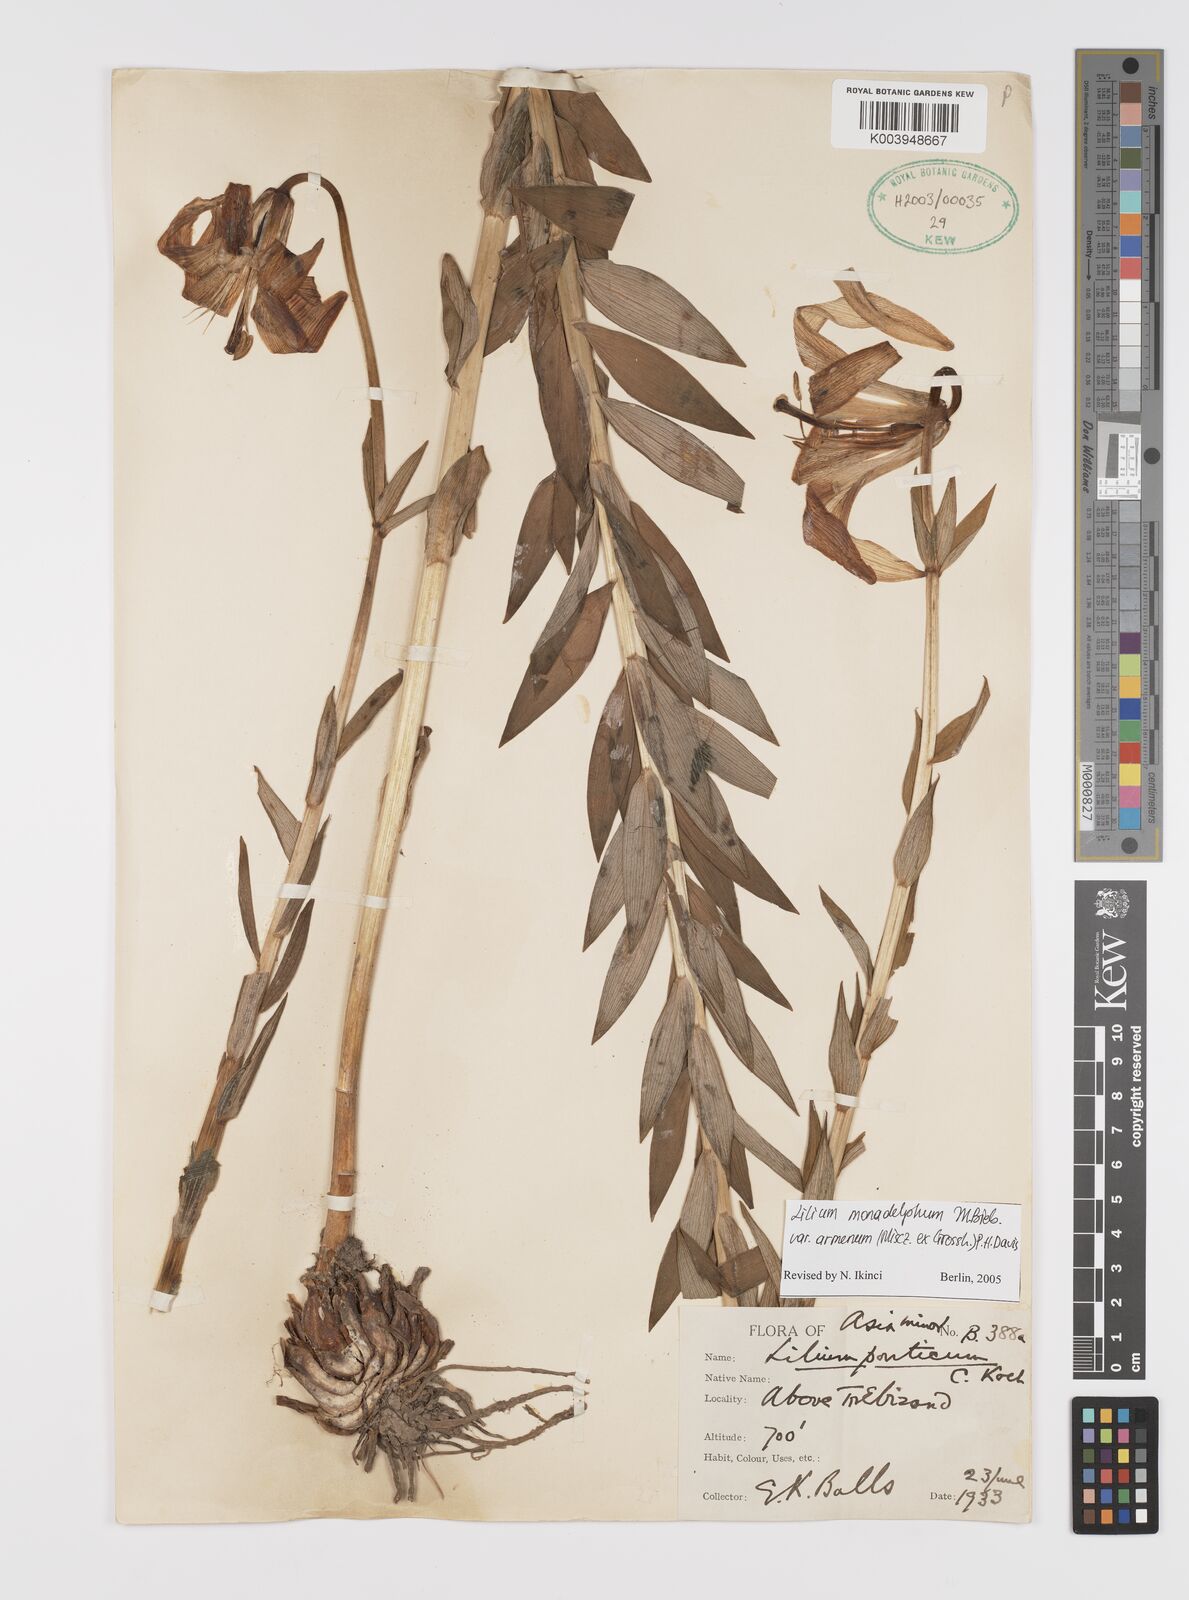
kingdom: Plantae
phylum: Tracheophyta
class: Liliopsida
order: Liliales
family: Liliaceae
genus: Lilium
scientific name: Lilium armenum
